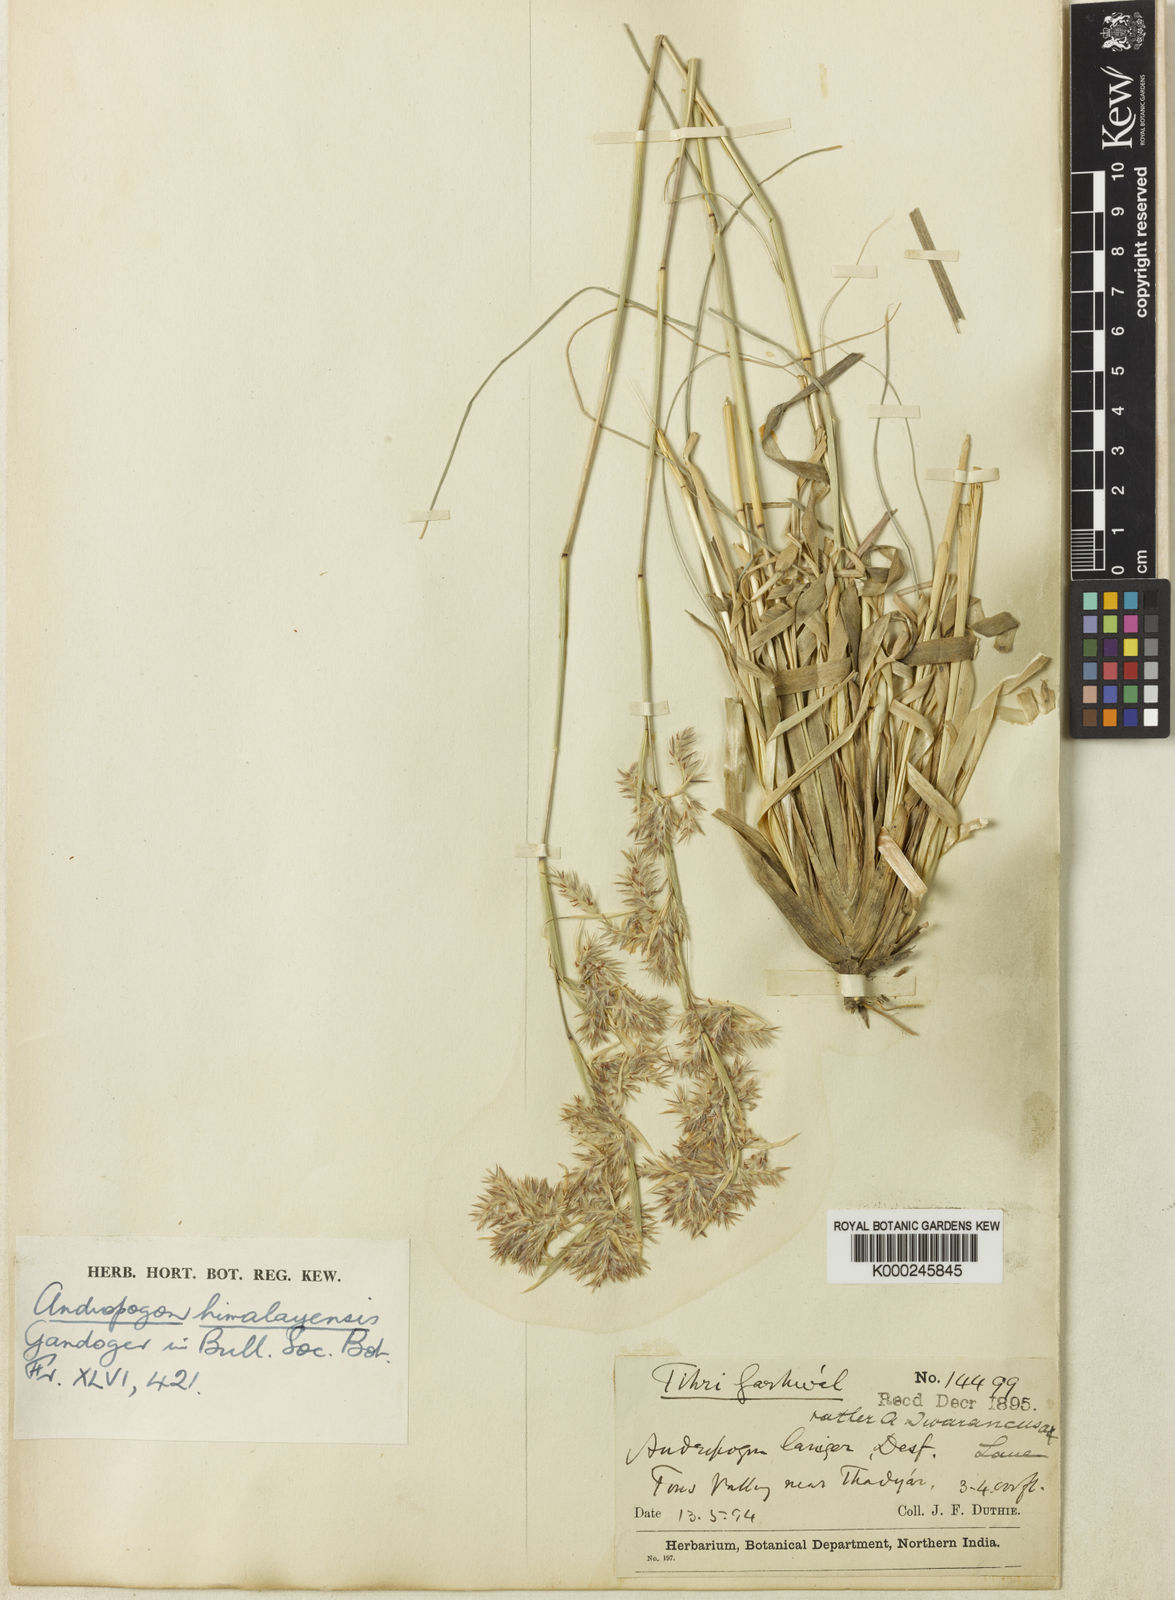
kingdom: Plantae
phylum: Tracheophyta
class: Liliopsida
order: Poales
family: Poaceae
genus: Cymbopogon
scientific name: Cymbopogon iwarancusa
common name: Iwarancusa grass
